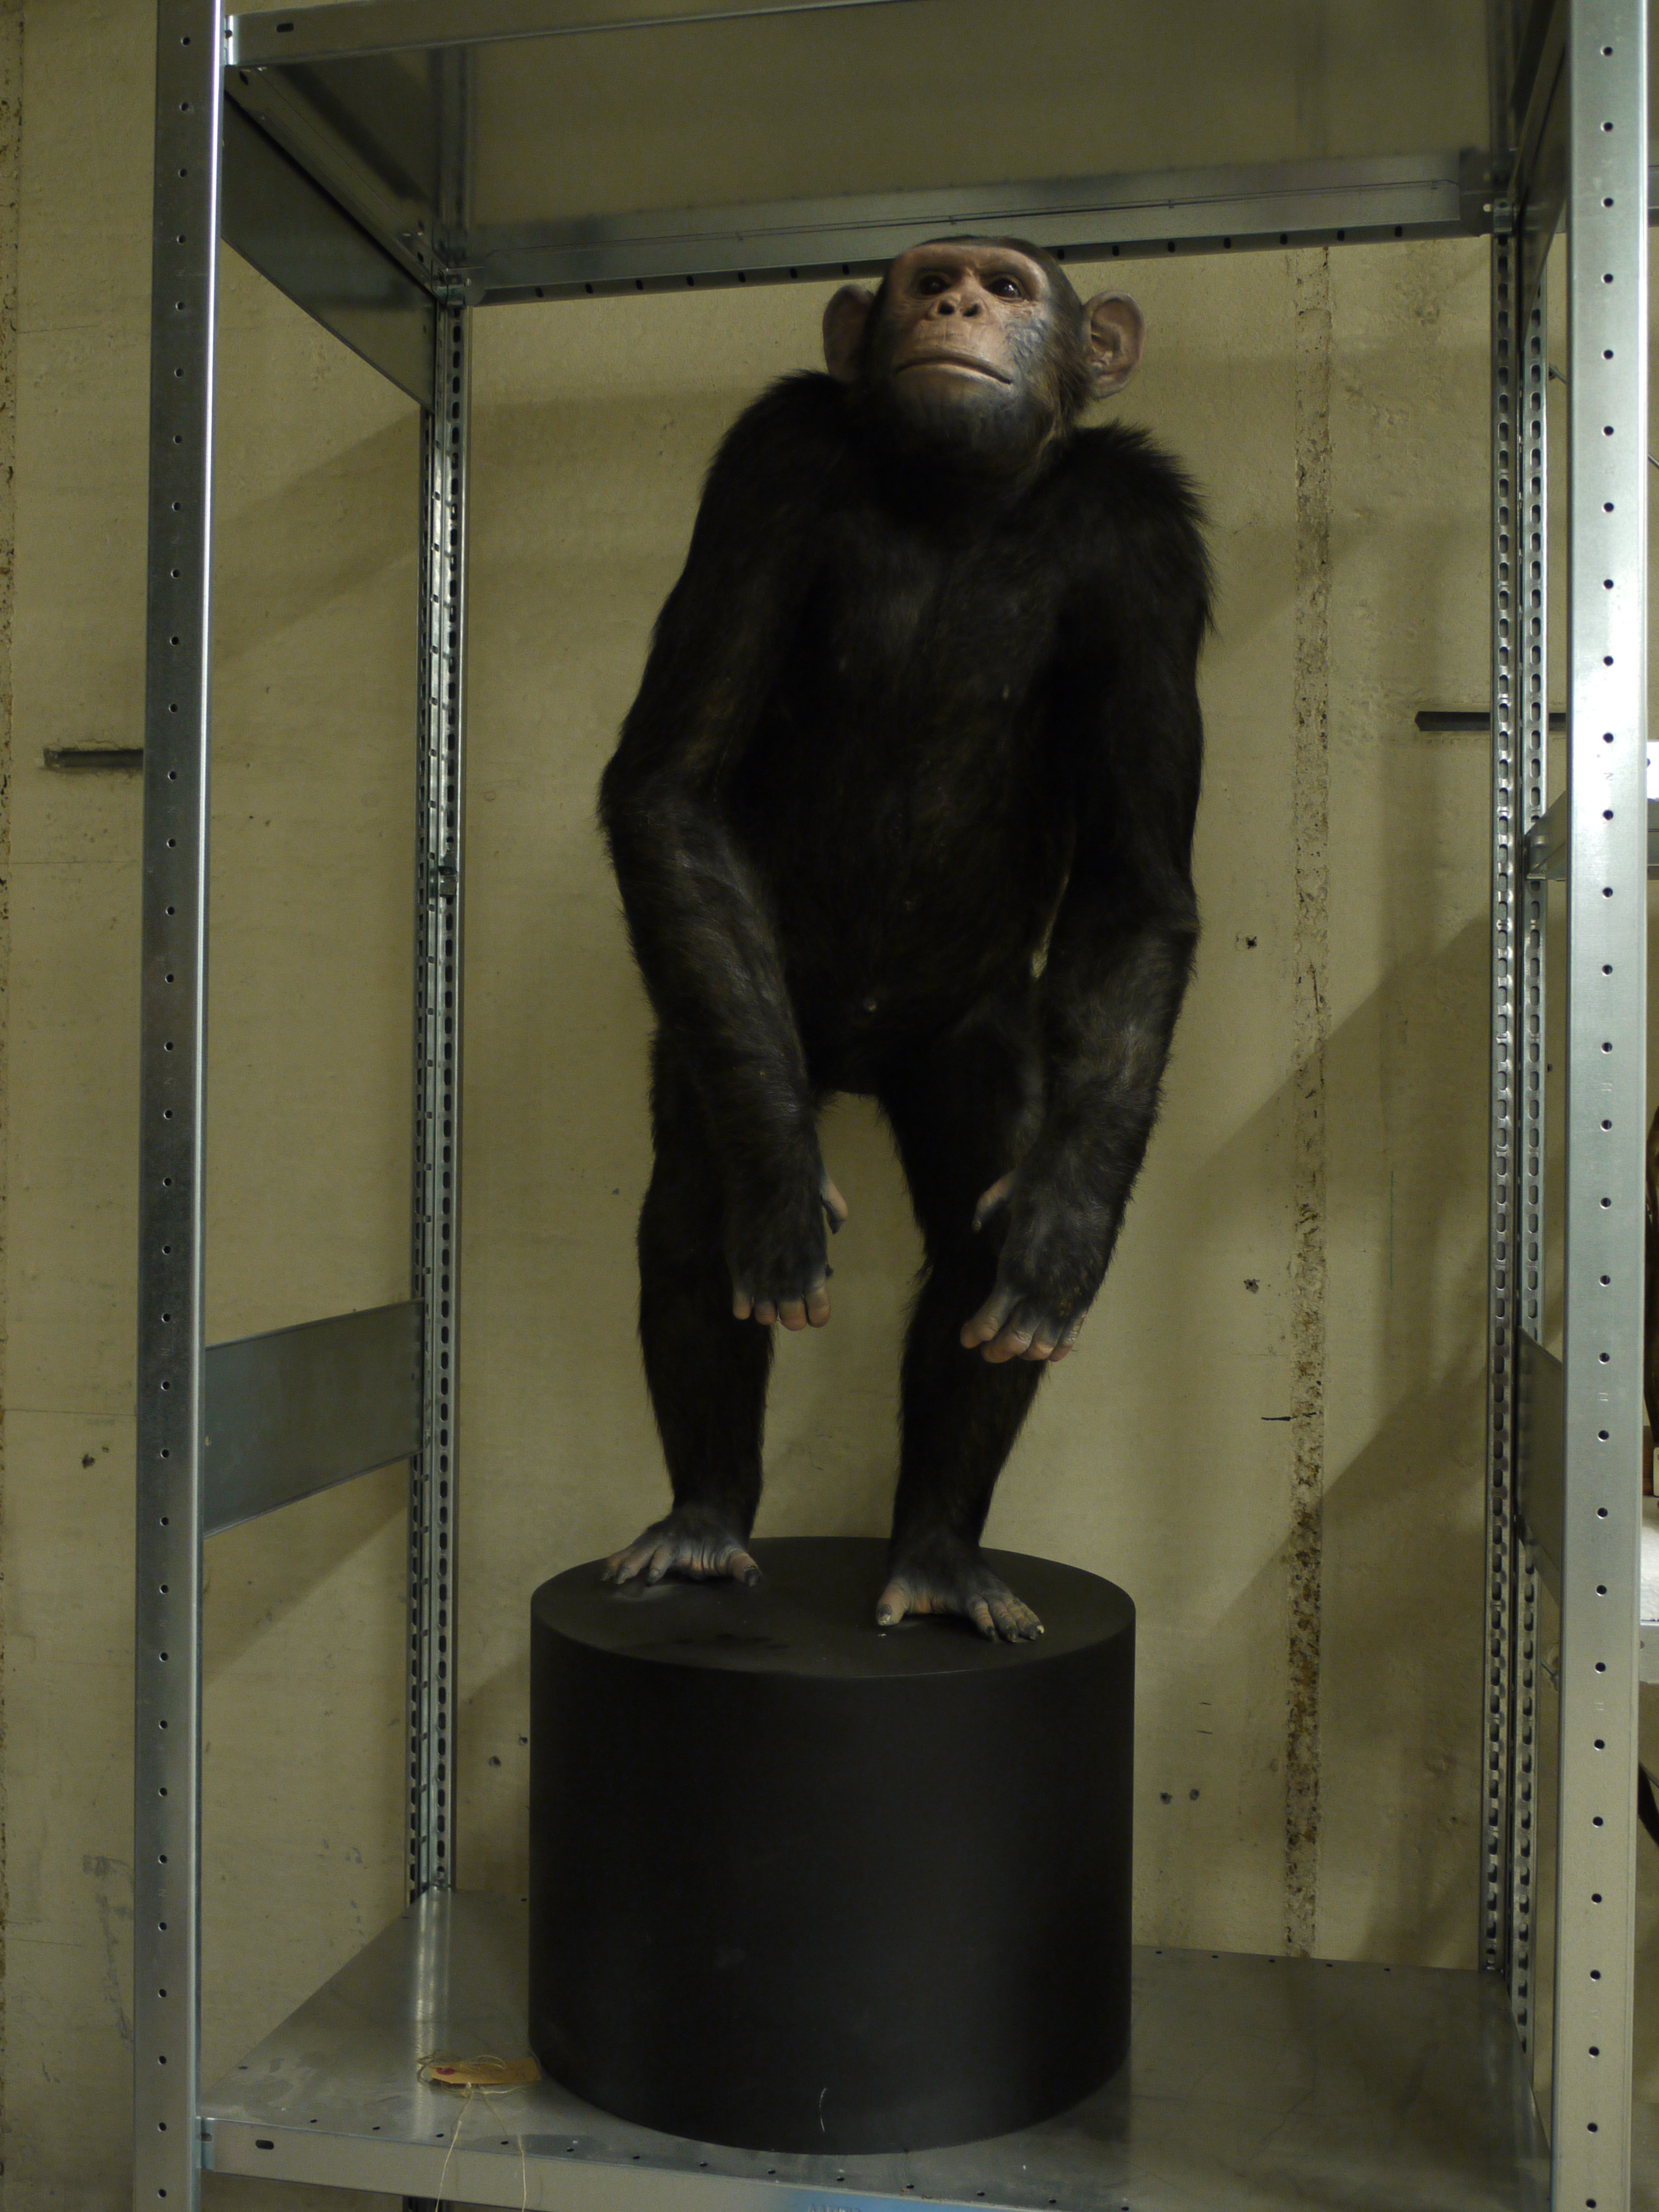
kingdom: Animalia
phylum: Chordata
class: Mammalia
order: Primates
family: Hominidae
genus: Pan
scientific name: Pan troglodytes
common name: Chimpanzee
